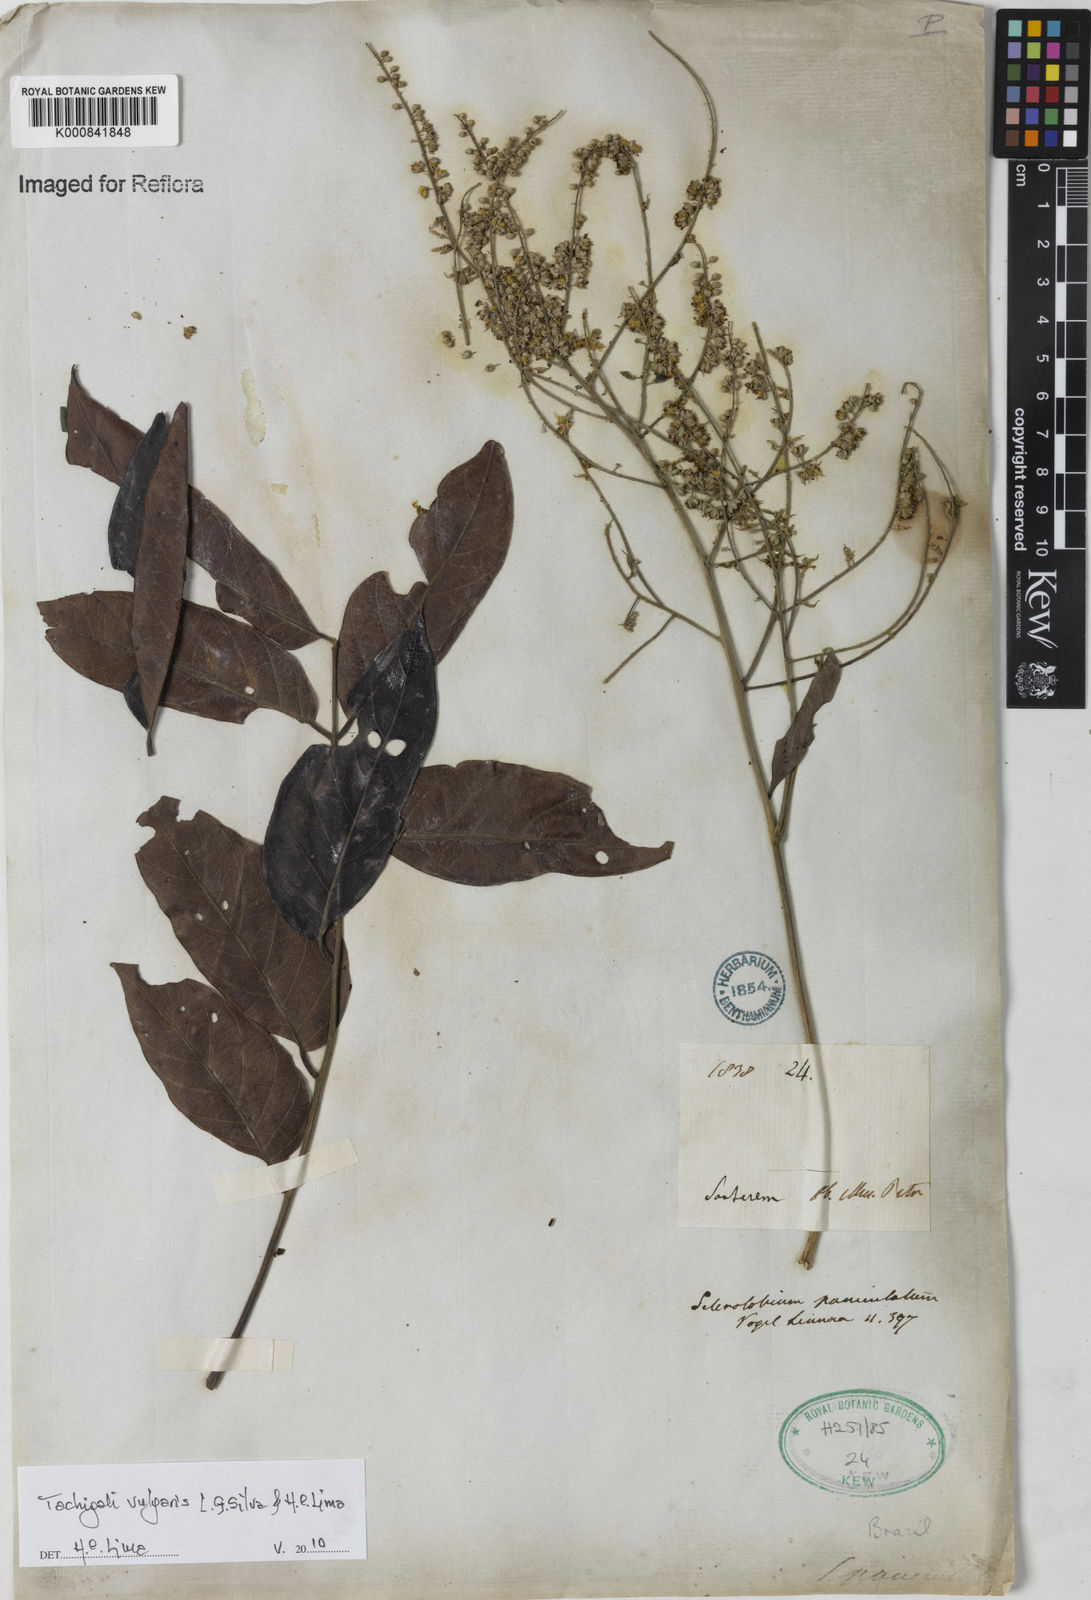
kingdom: Plantae
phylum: Tracheophyta
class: Magnoliopsida
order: Fabales
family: Fabaceae
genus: Tachigali
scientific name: Tachigali vulgaris
